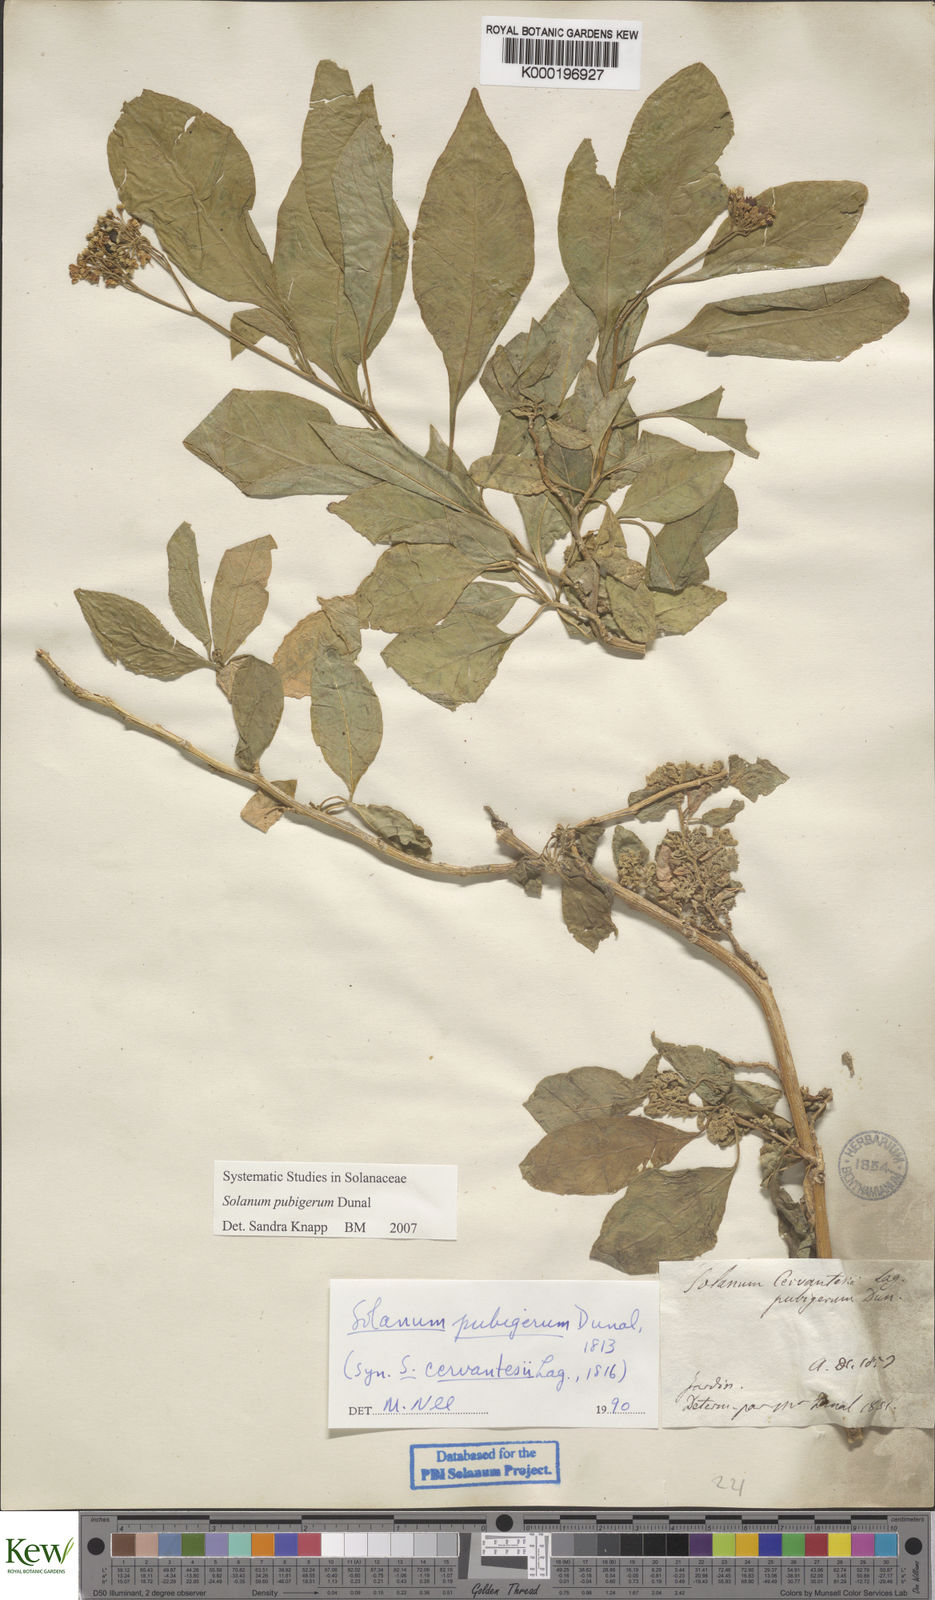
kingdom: Plantae
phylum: Tracheophyta
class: Magnoliopsida
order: Solanales
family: Solanaceae
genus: Solanum
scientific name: Solanum pubigerum
